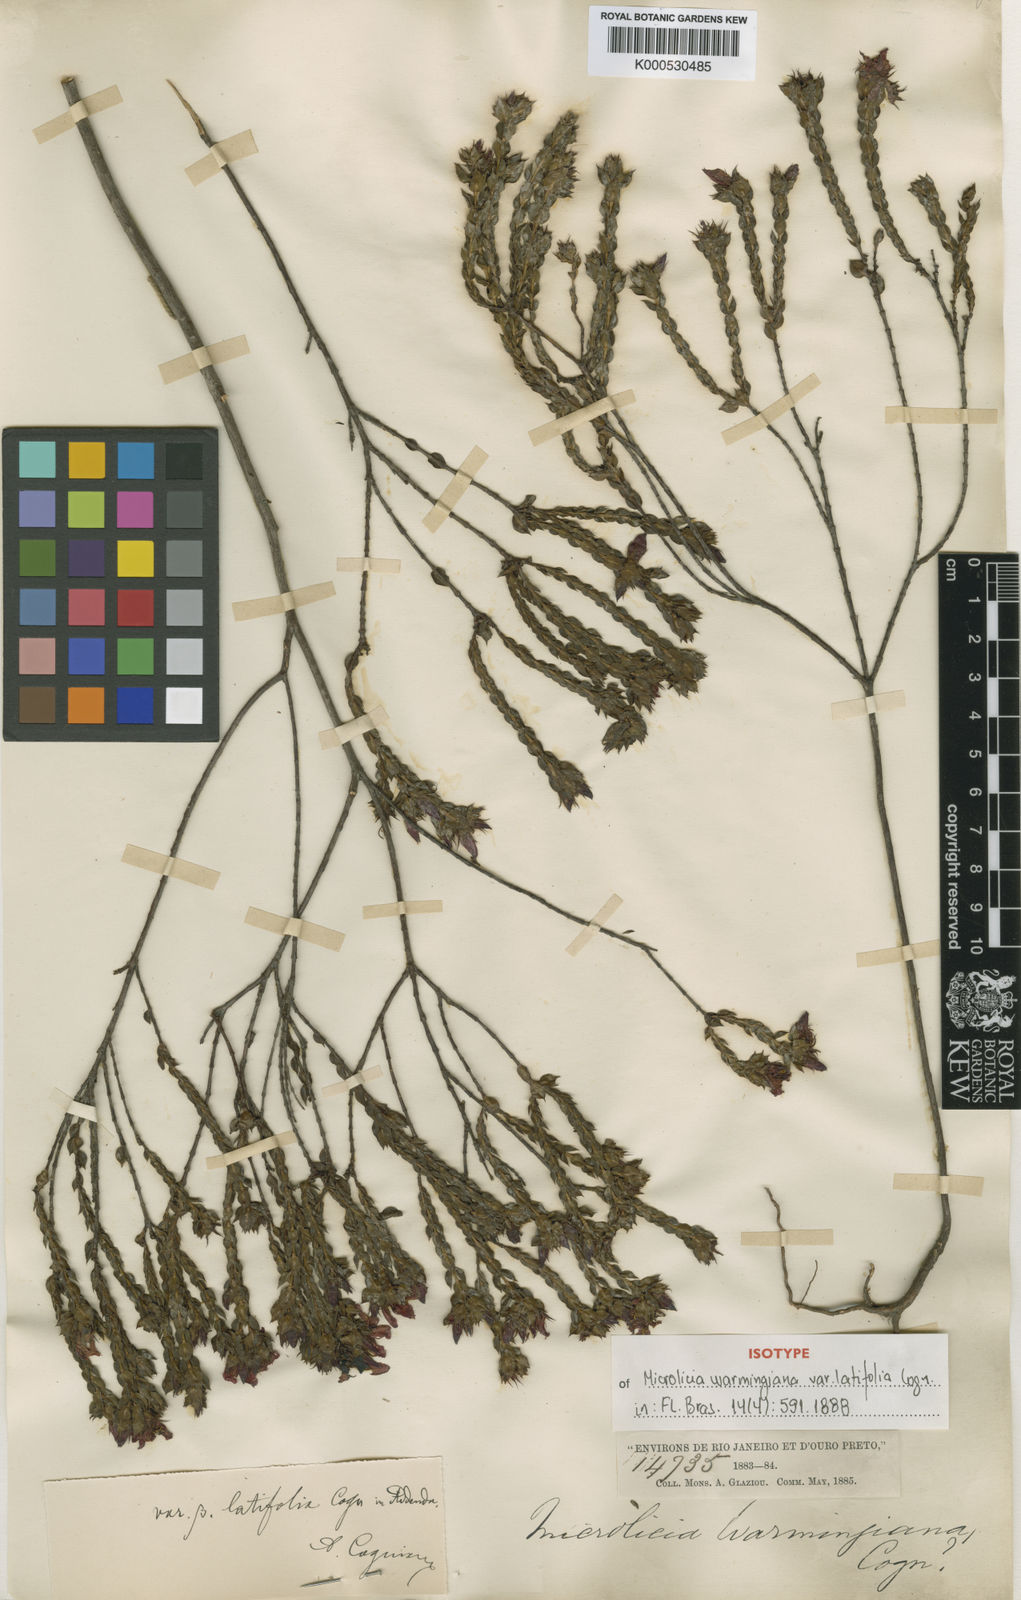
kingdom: Plantae
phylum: Tracheophyta
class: Magnoliopsida
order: Myrtales
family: Melastomataceae
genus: Microlicia
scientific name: Microlicia warmingiana
